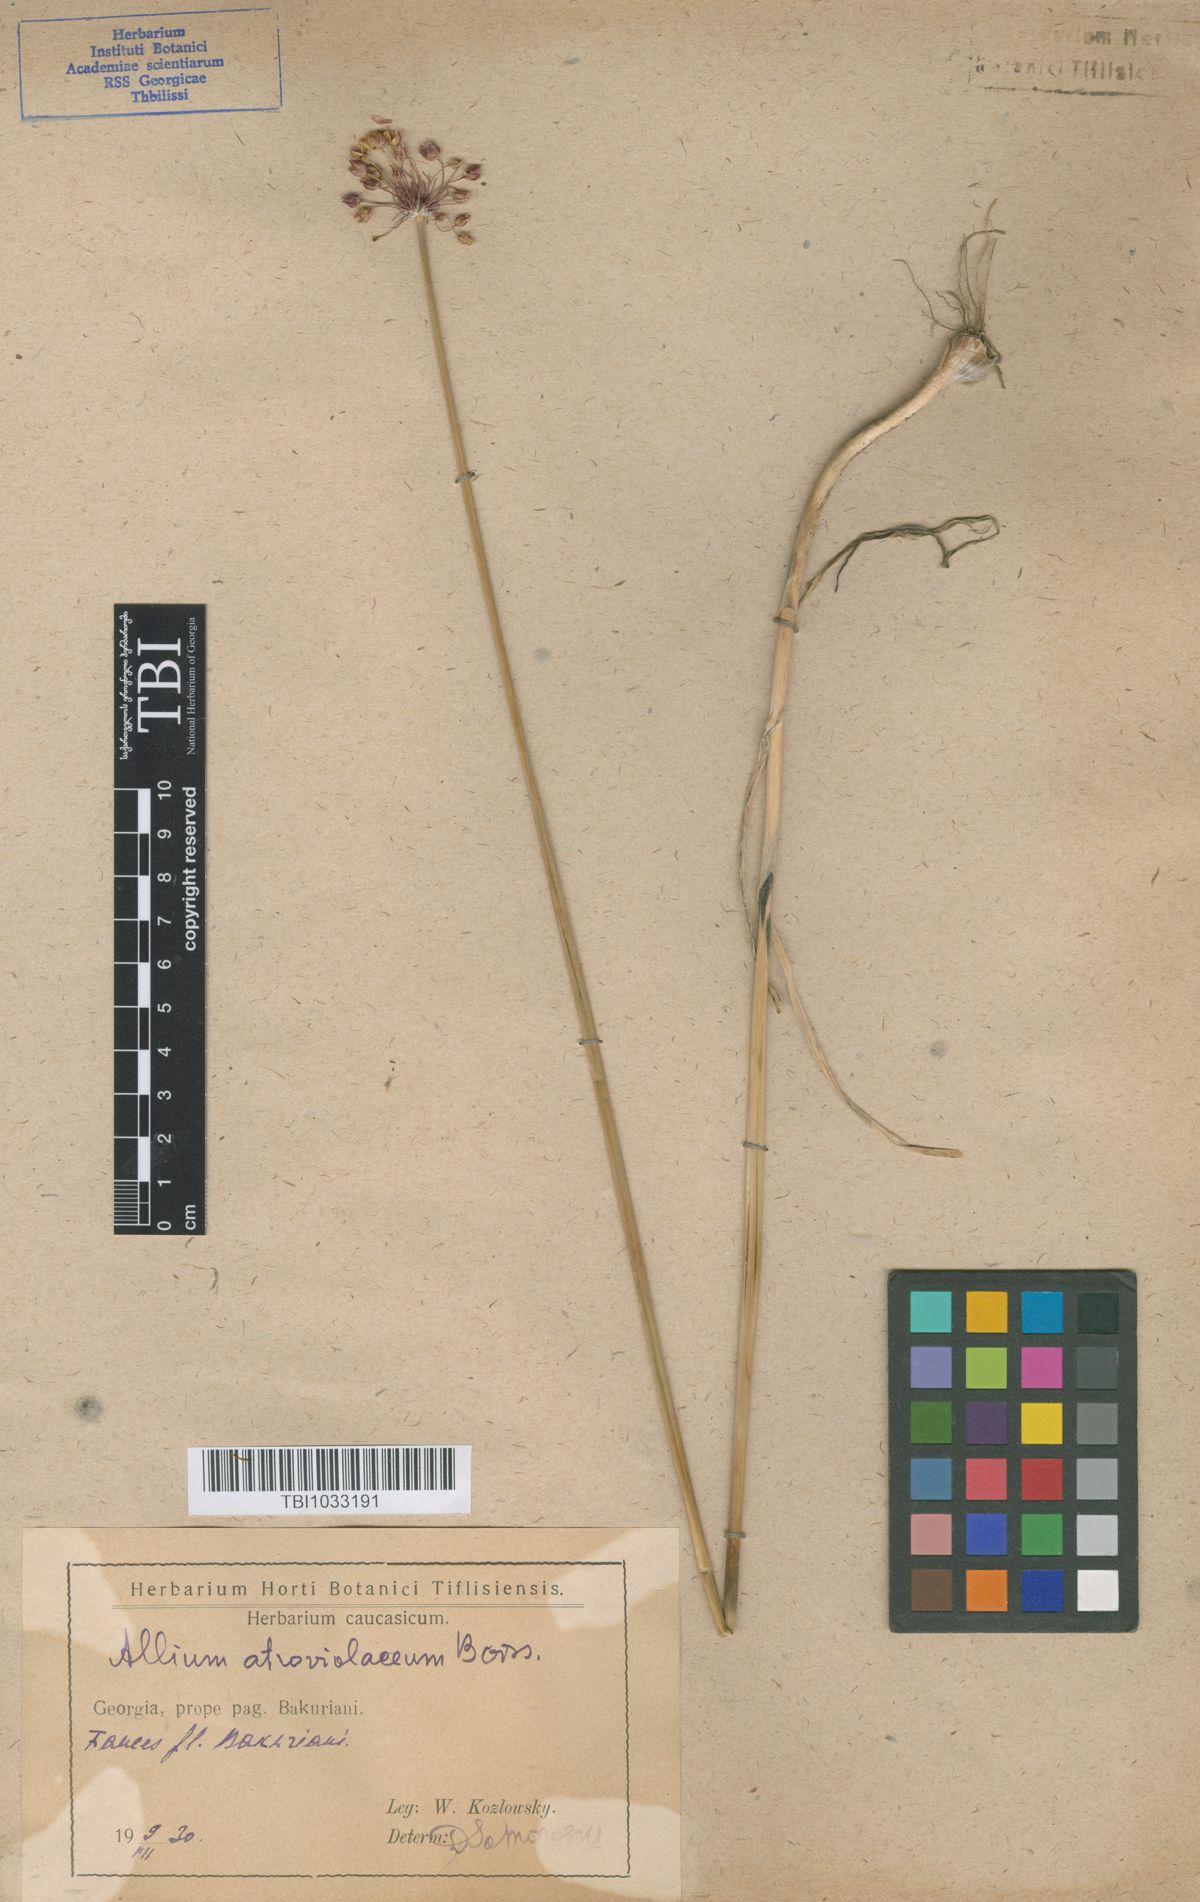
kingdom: Plantae
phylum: Tracheophyta
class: Liliopsida
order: Asparagales
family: Amaryllidaceae
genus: Allium
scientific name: Allium atroviolaceum
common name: Broadleaf wild leek
